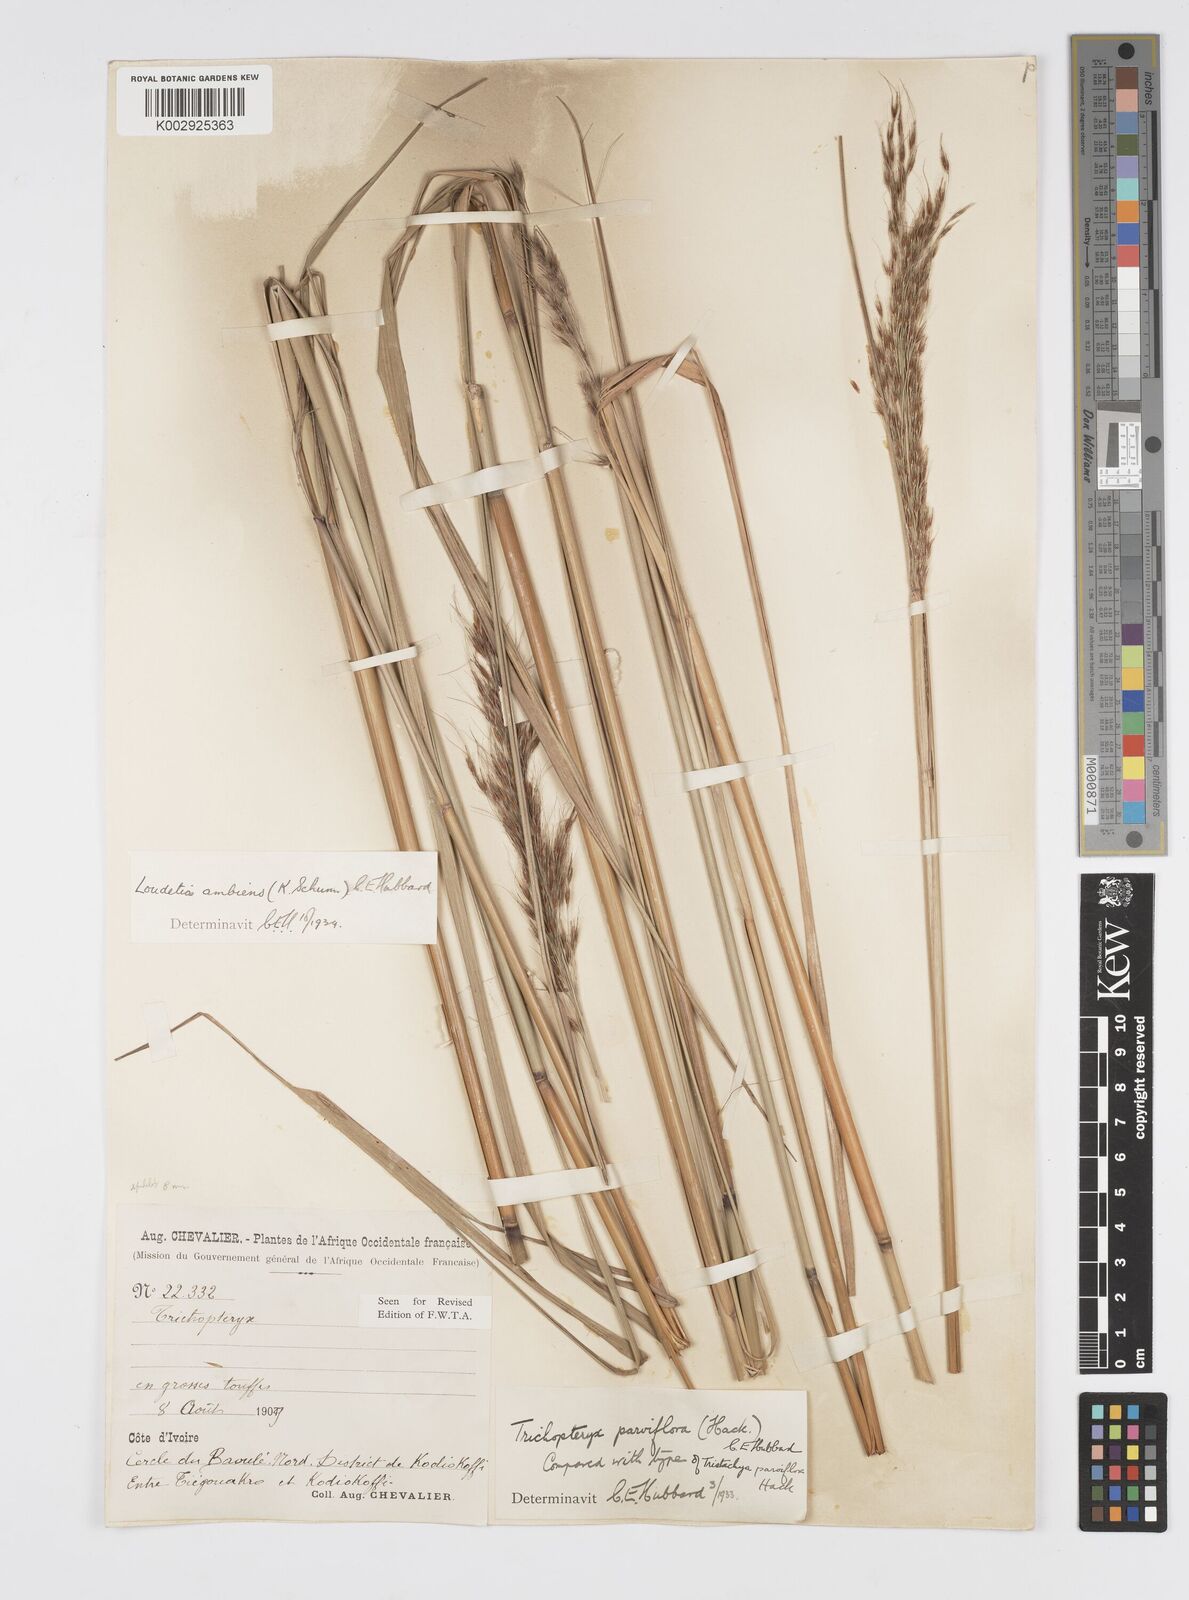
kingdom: Plantae
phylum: Tracheophyta
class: Liliopsida
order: Poales
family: Poaceae
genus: Loudetiopsis
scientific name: Loudetiopsis ambiens
